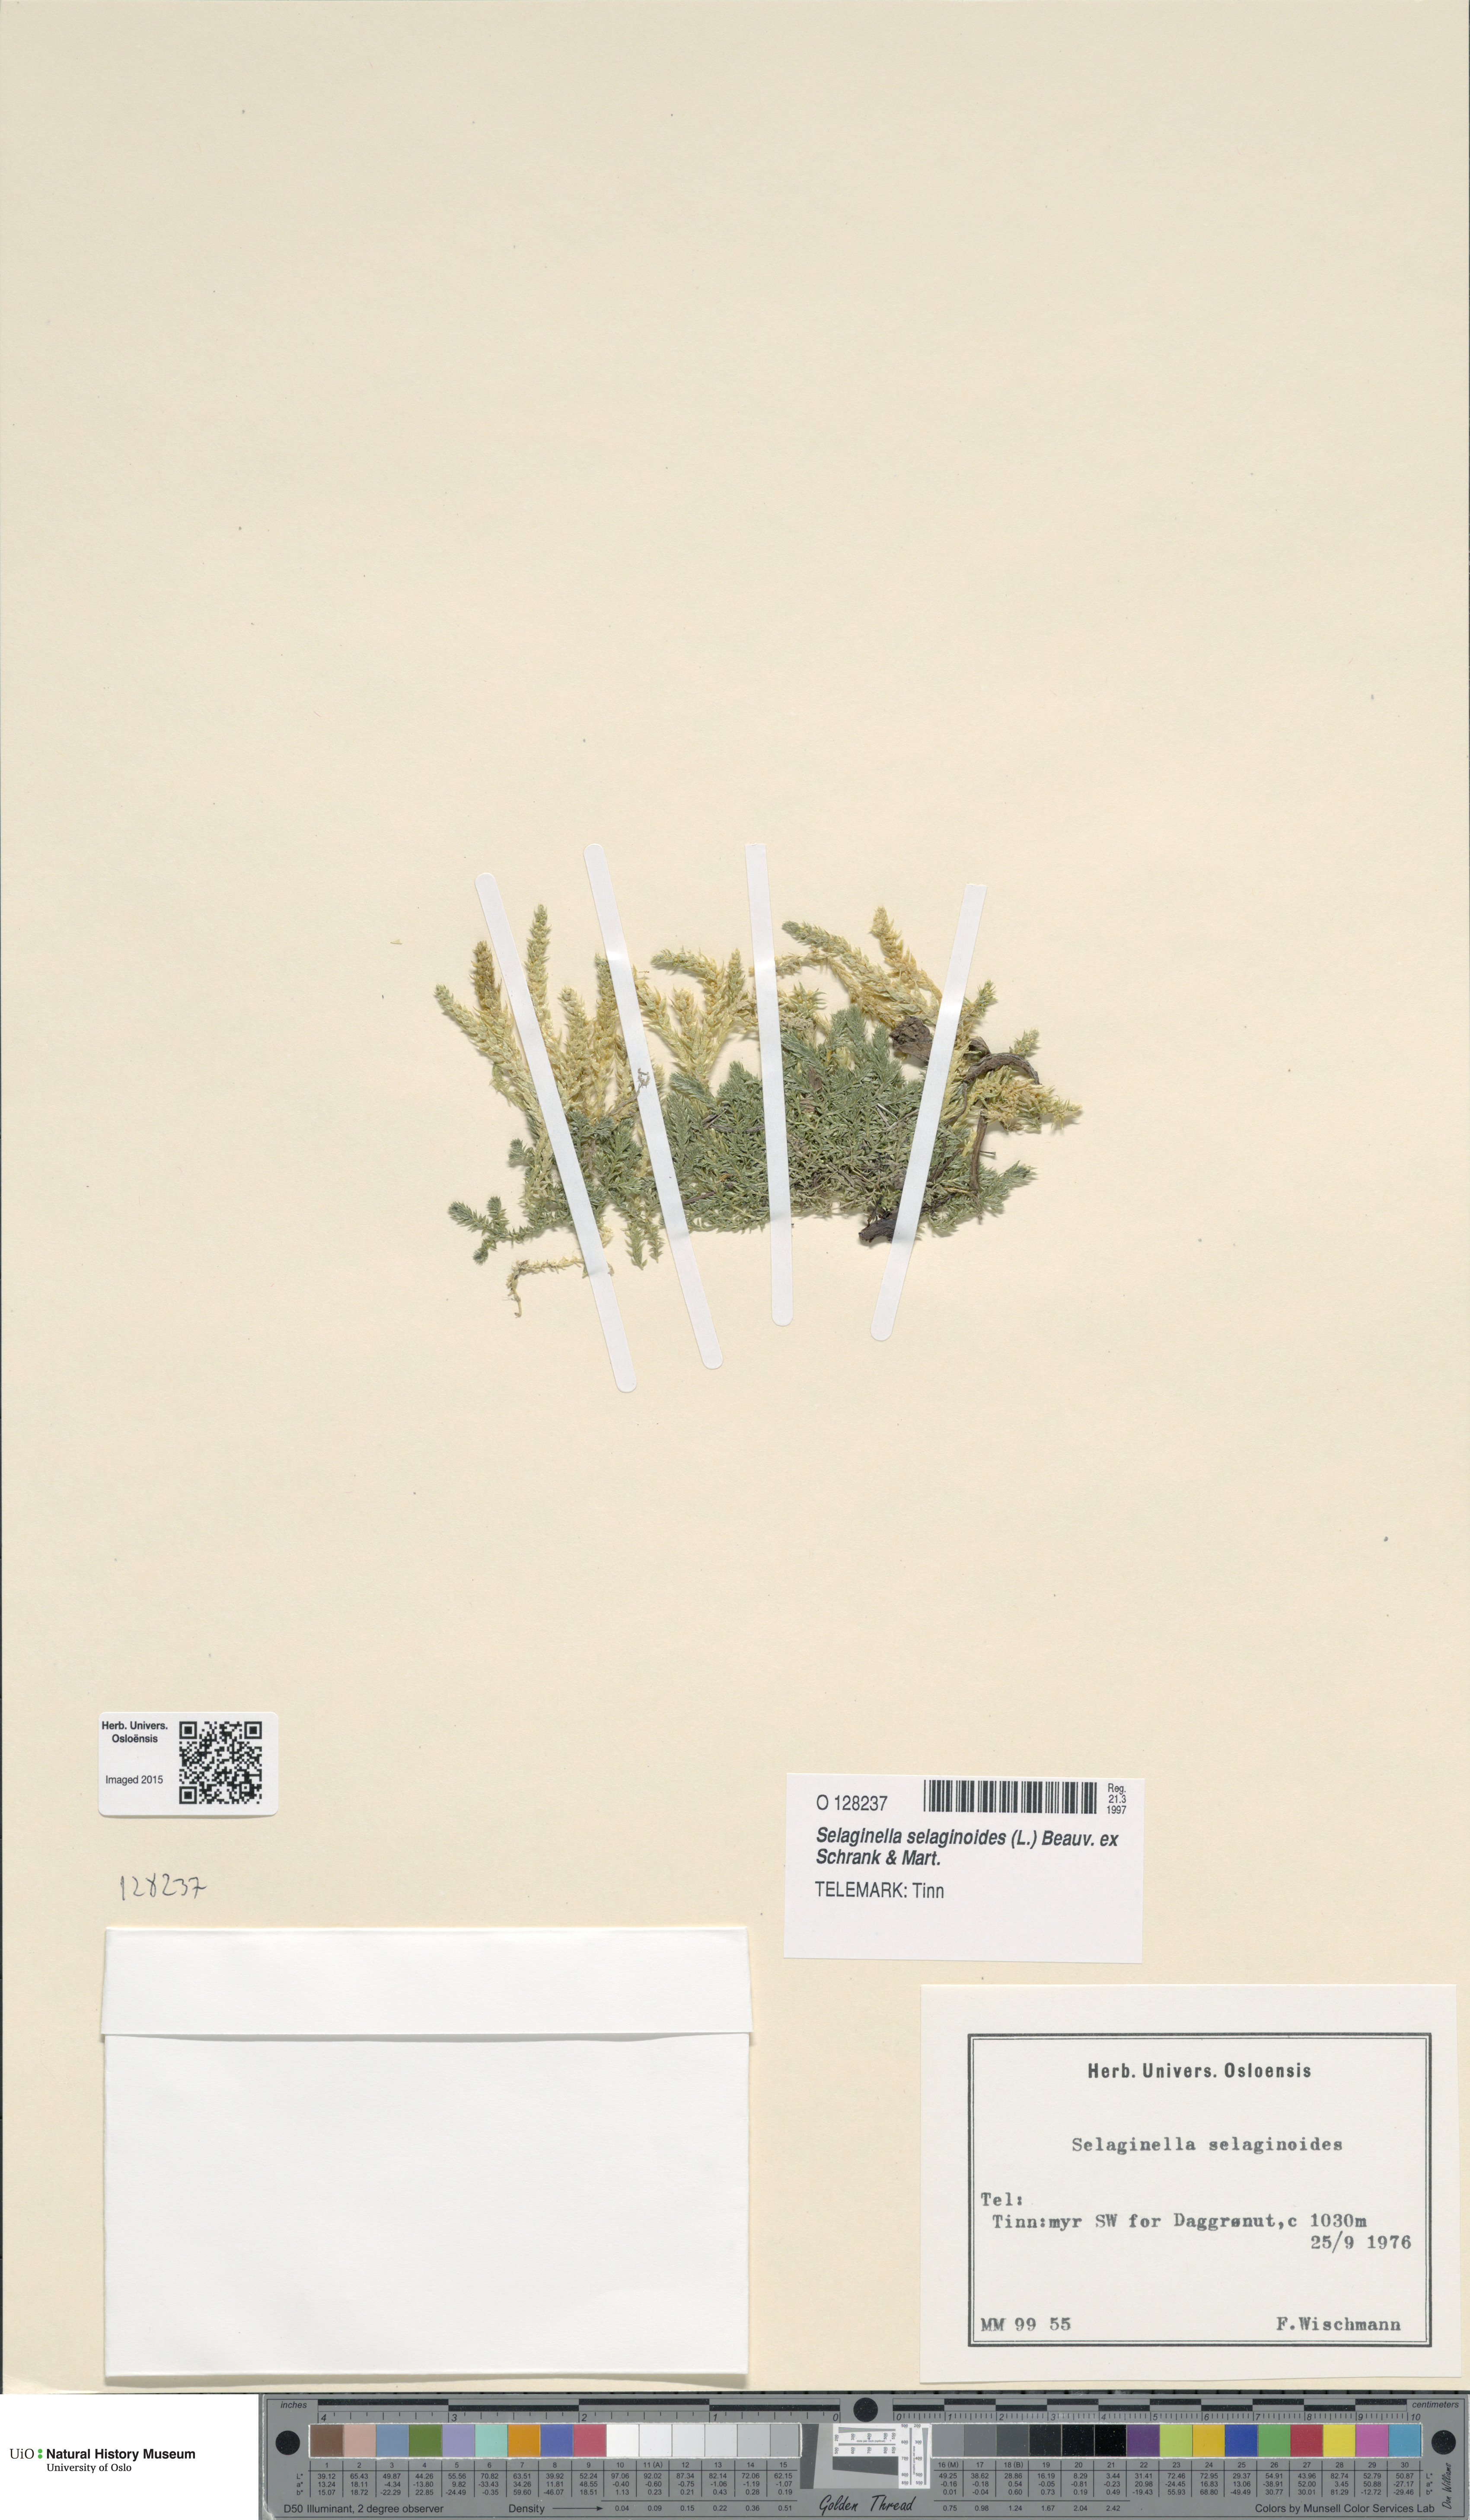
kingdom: Plantae
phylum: Tracheophyta
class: Lycopodiopsida
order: Selaginellales
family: Selaginellaceae
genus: Selaginella
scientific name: Selaginella selaginoides
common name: Prickly mountain-moss
